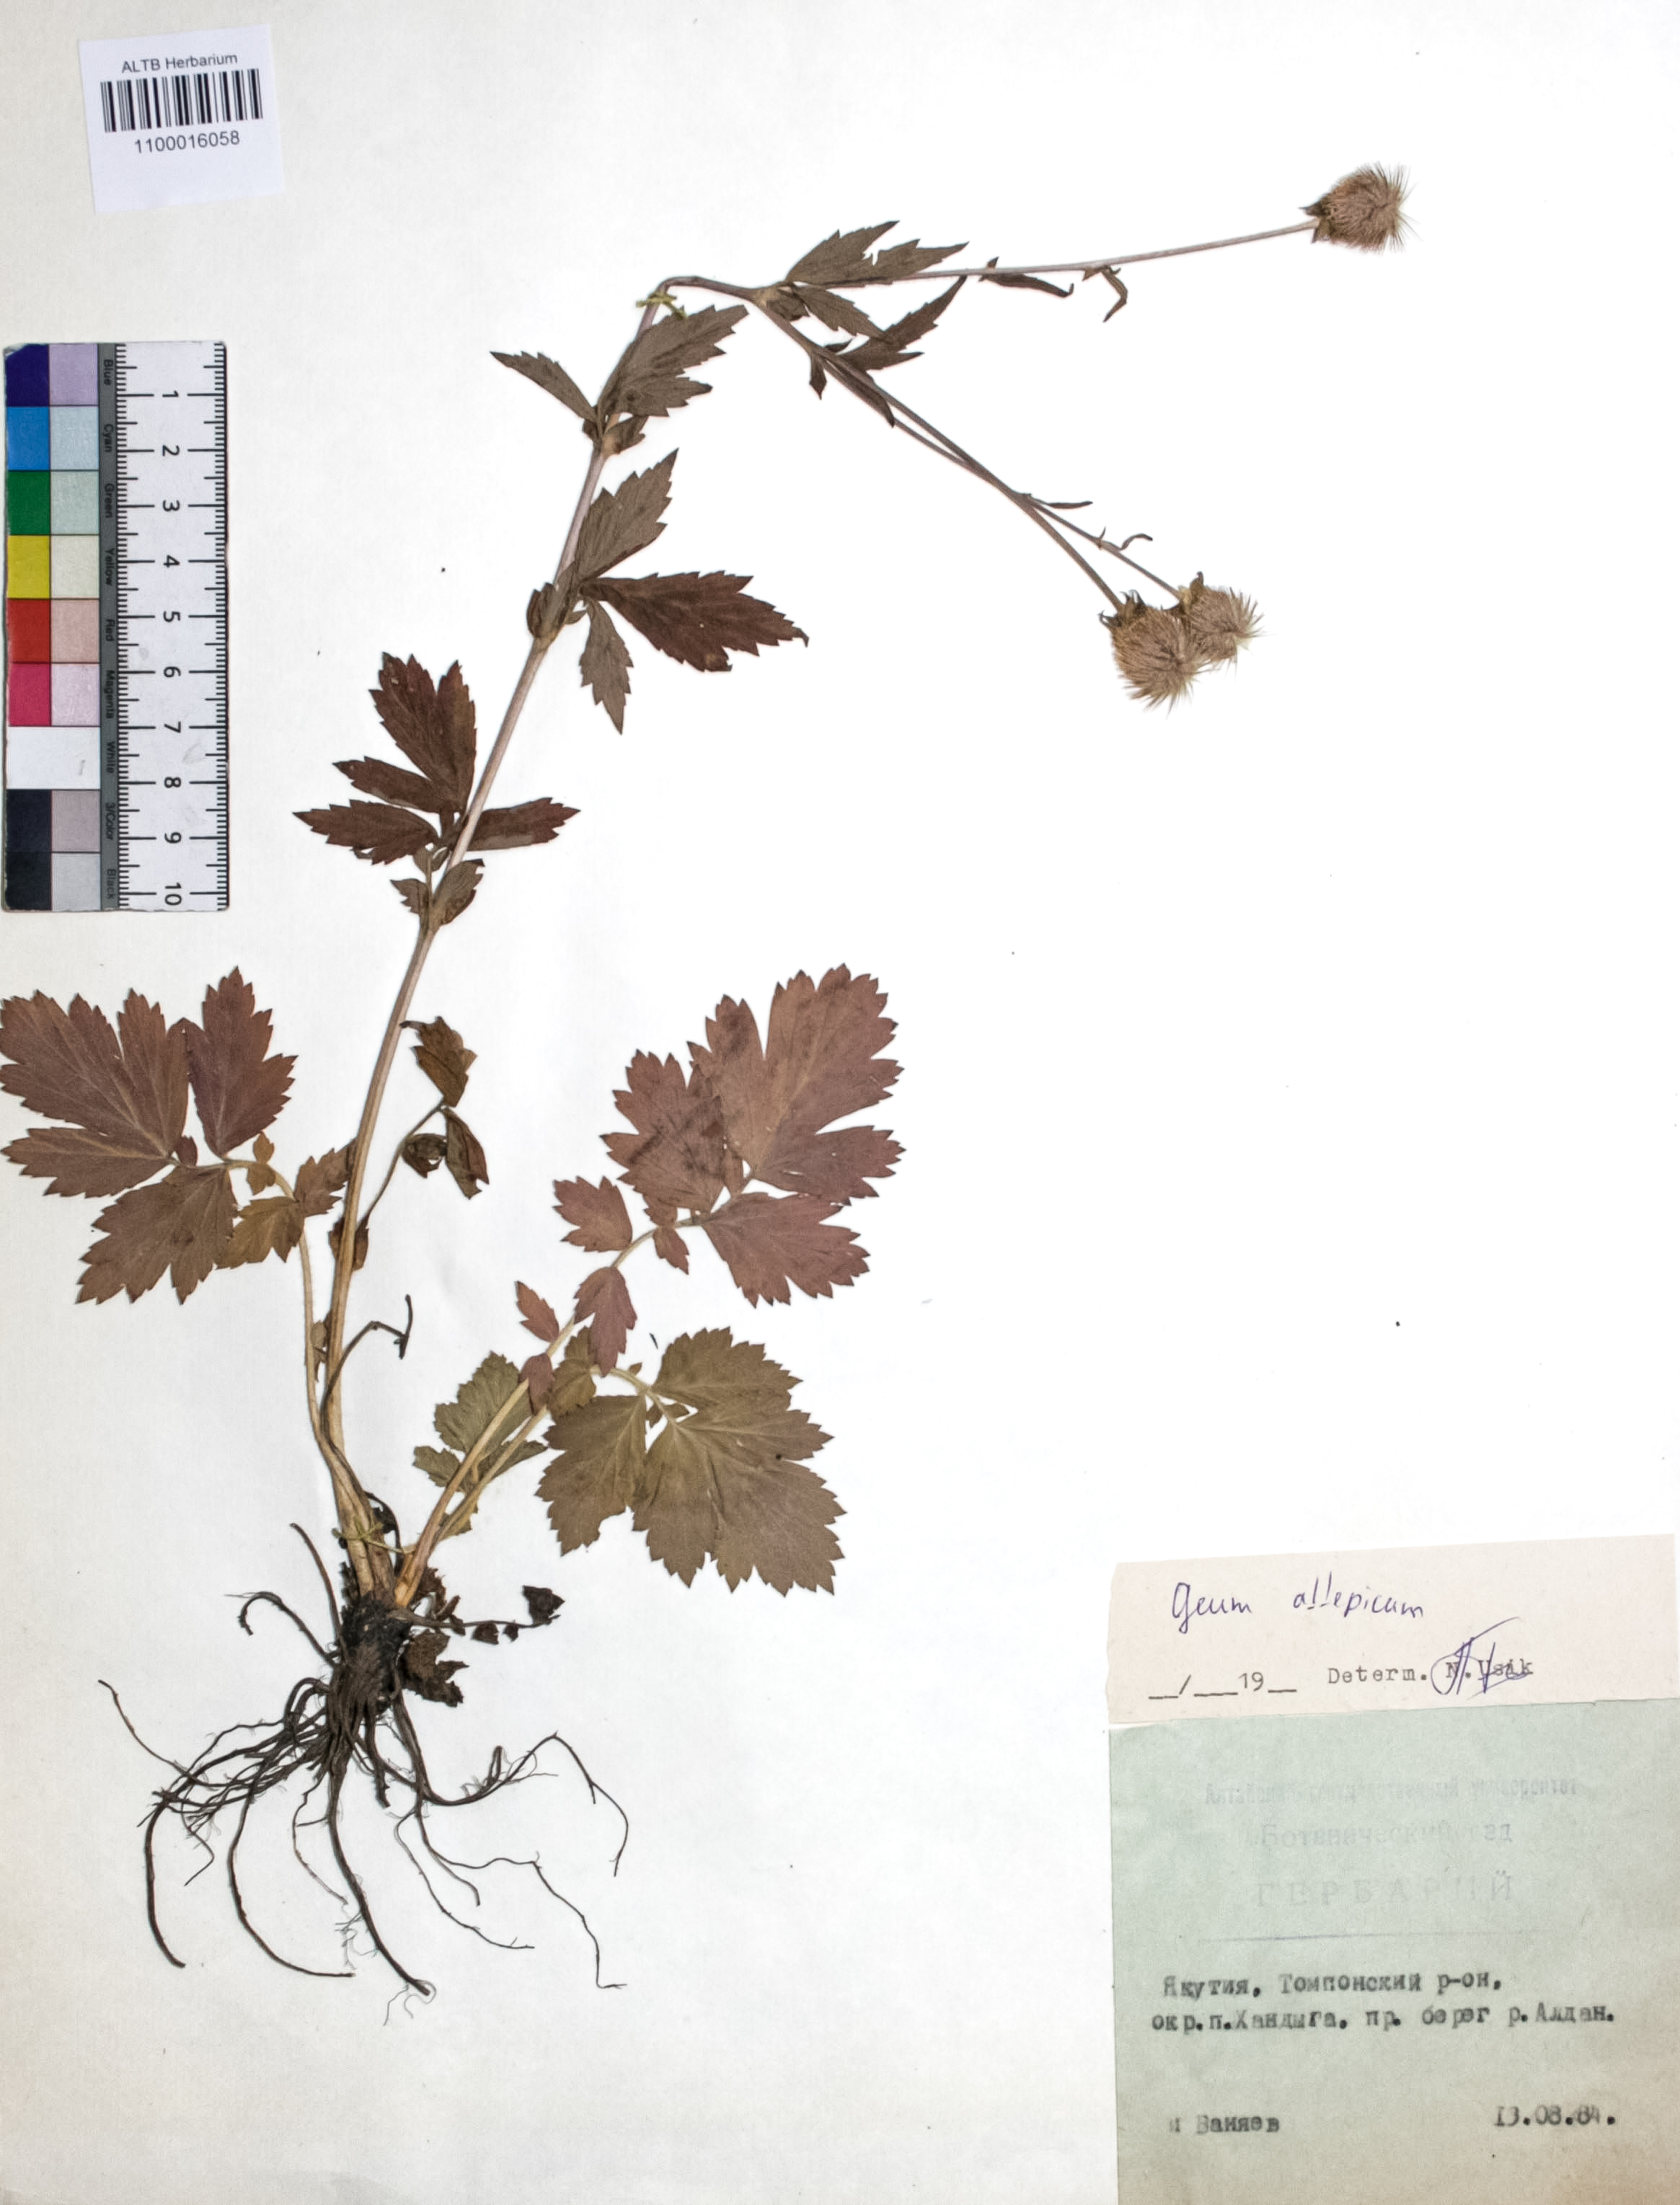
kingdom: Plantae
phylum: Tracheophyta
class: Magnoliopsida
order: Rosales
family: Rosaceae
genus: Geum
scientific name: Geum aleppicum
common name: Yellow avens
